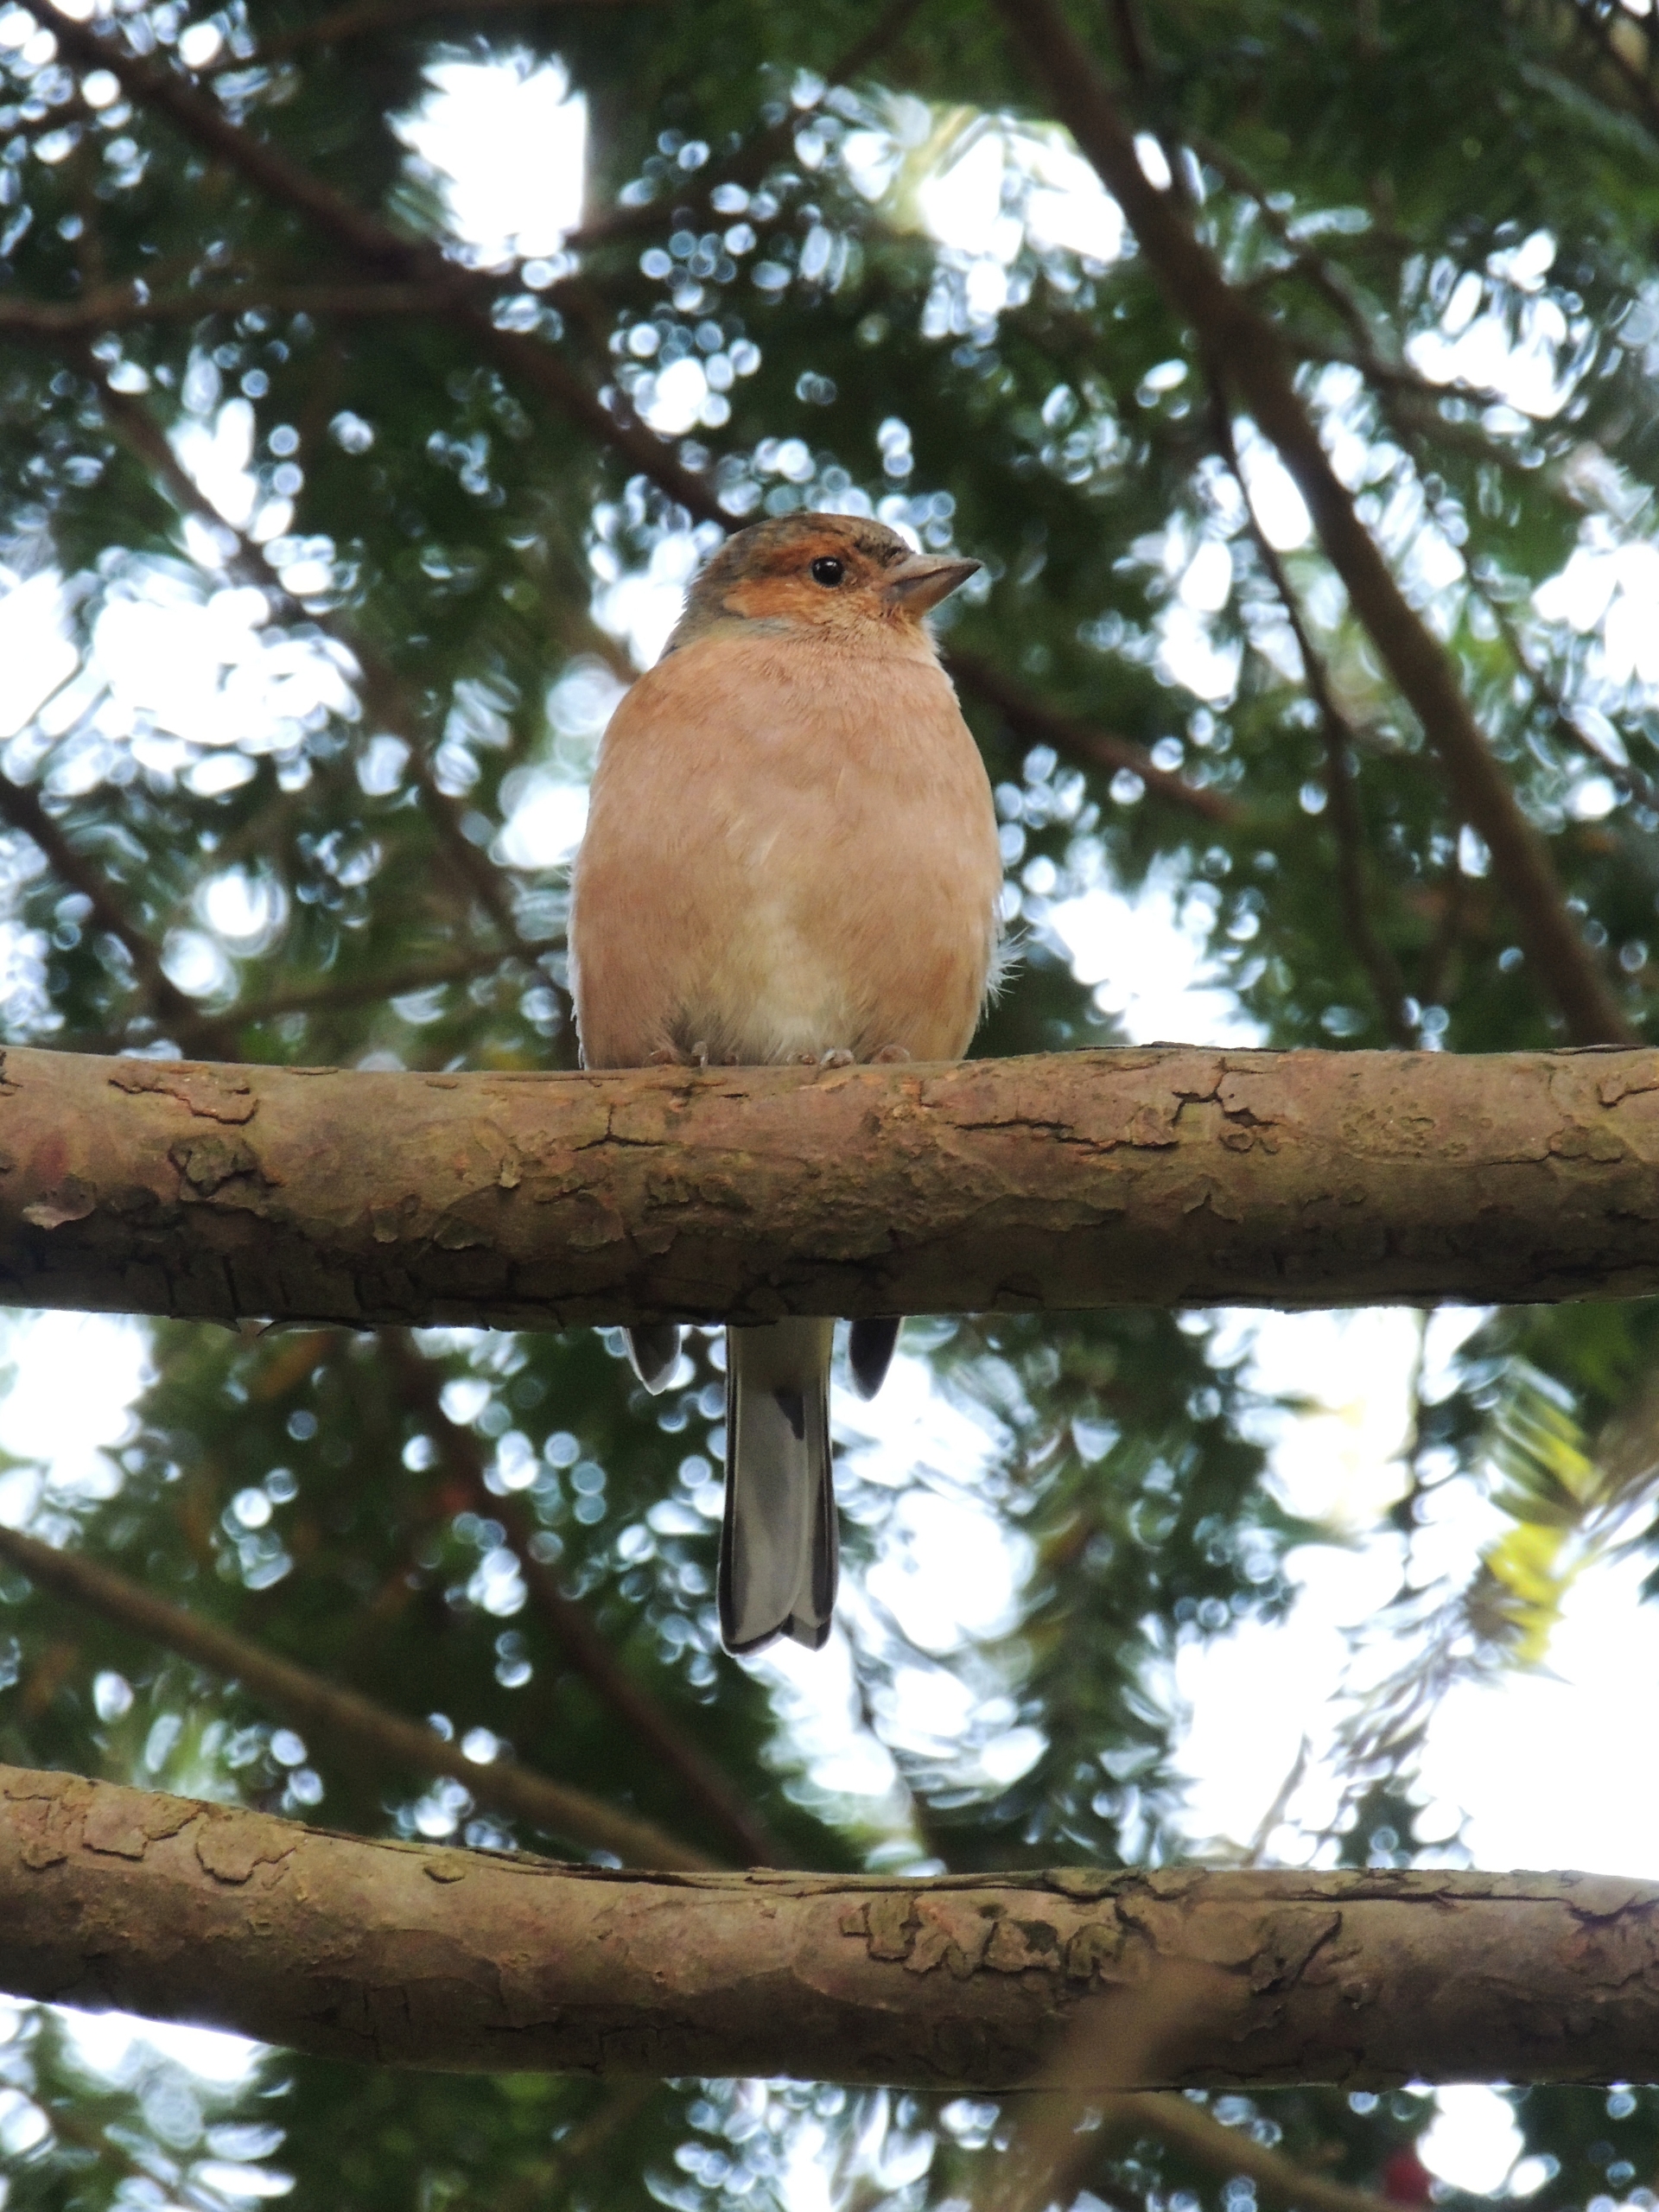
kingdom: Animalia
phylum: Chordata
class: Aves
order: Passeriformes
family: Fringillidae
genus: Fringilla
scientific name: Fringilla coelebs
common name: Bogfinke
